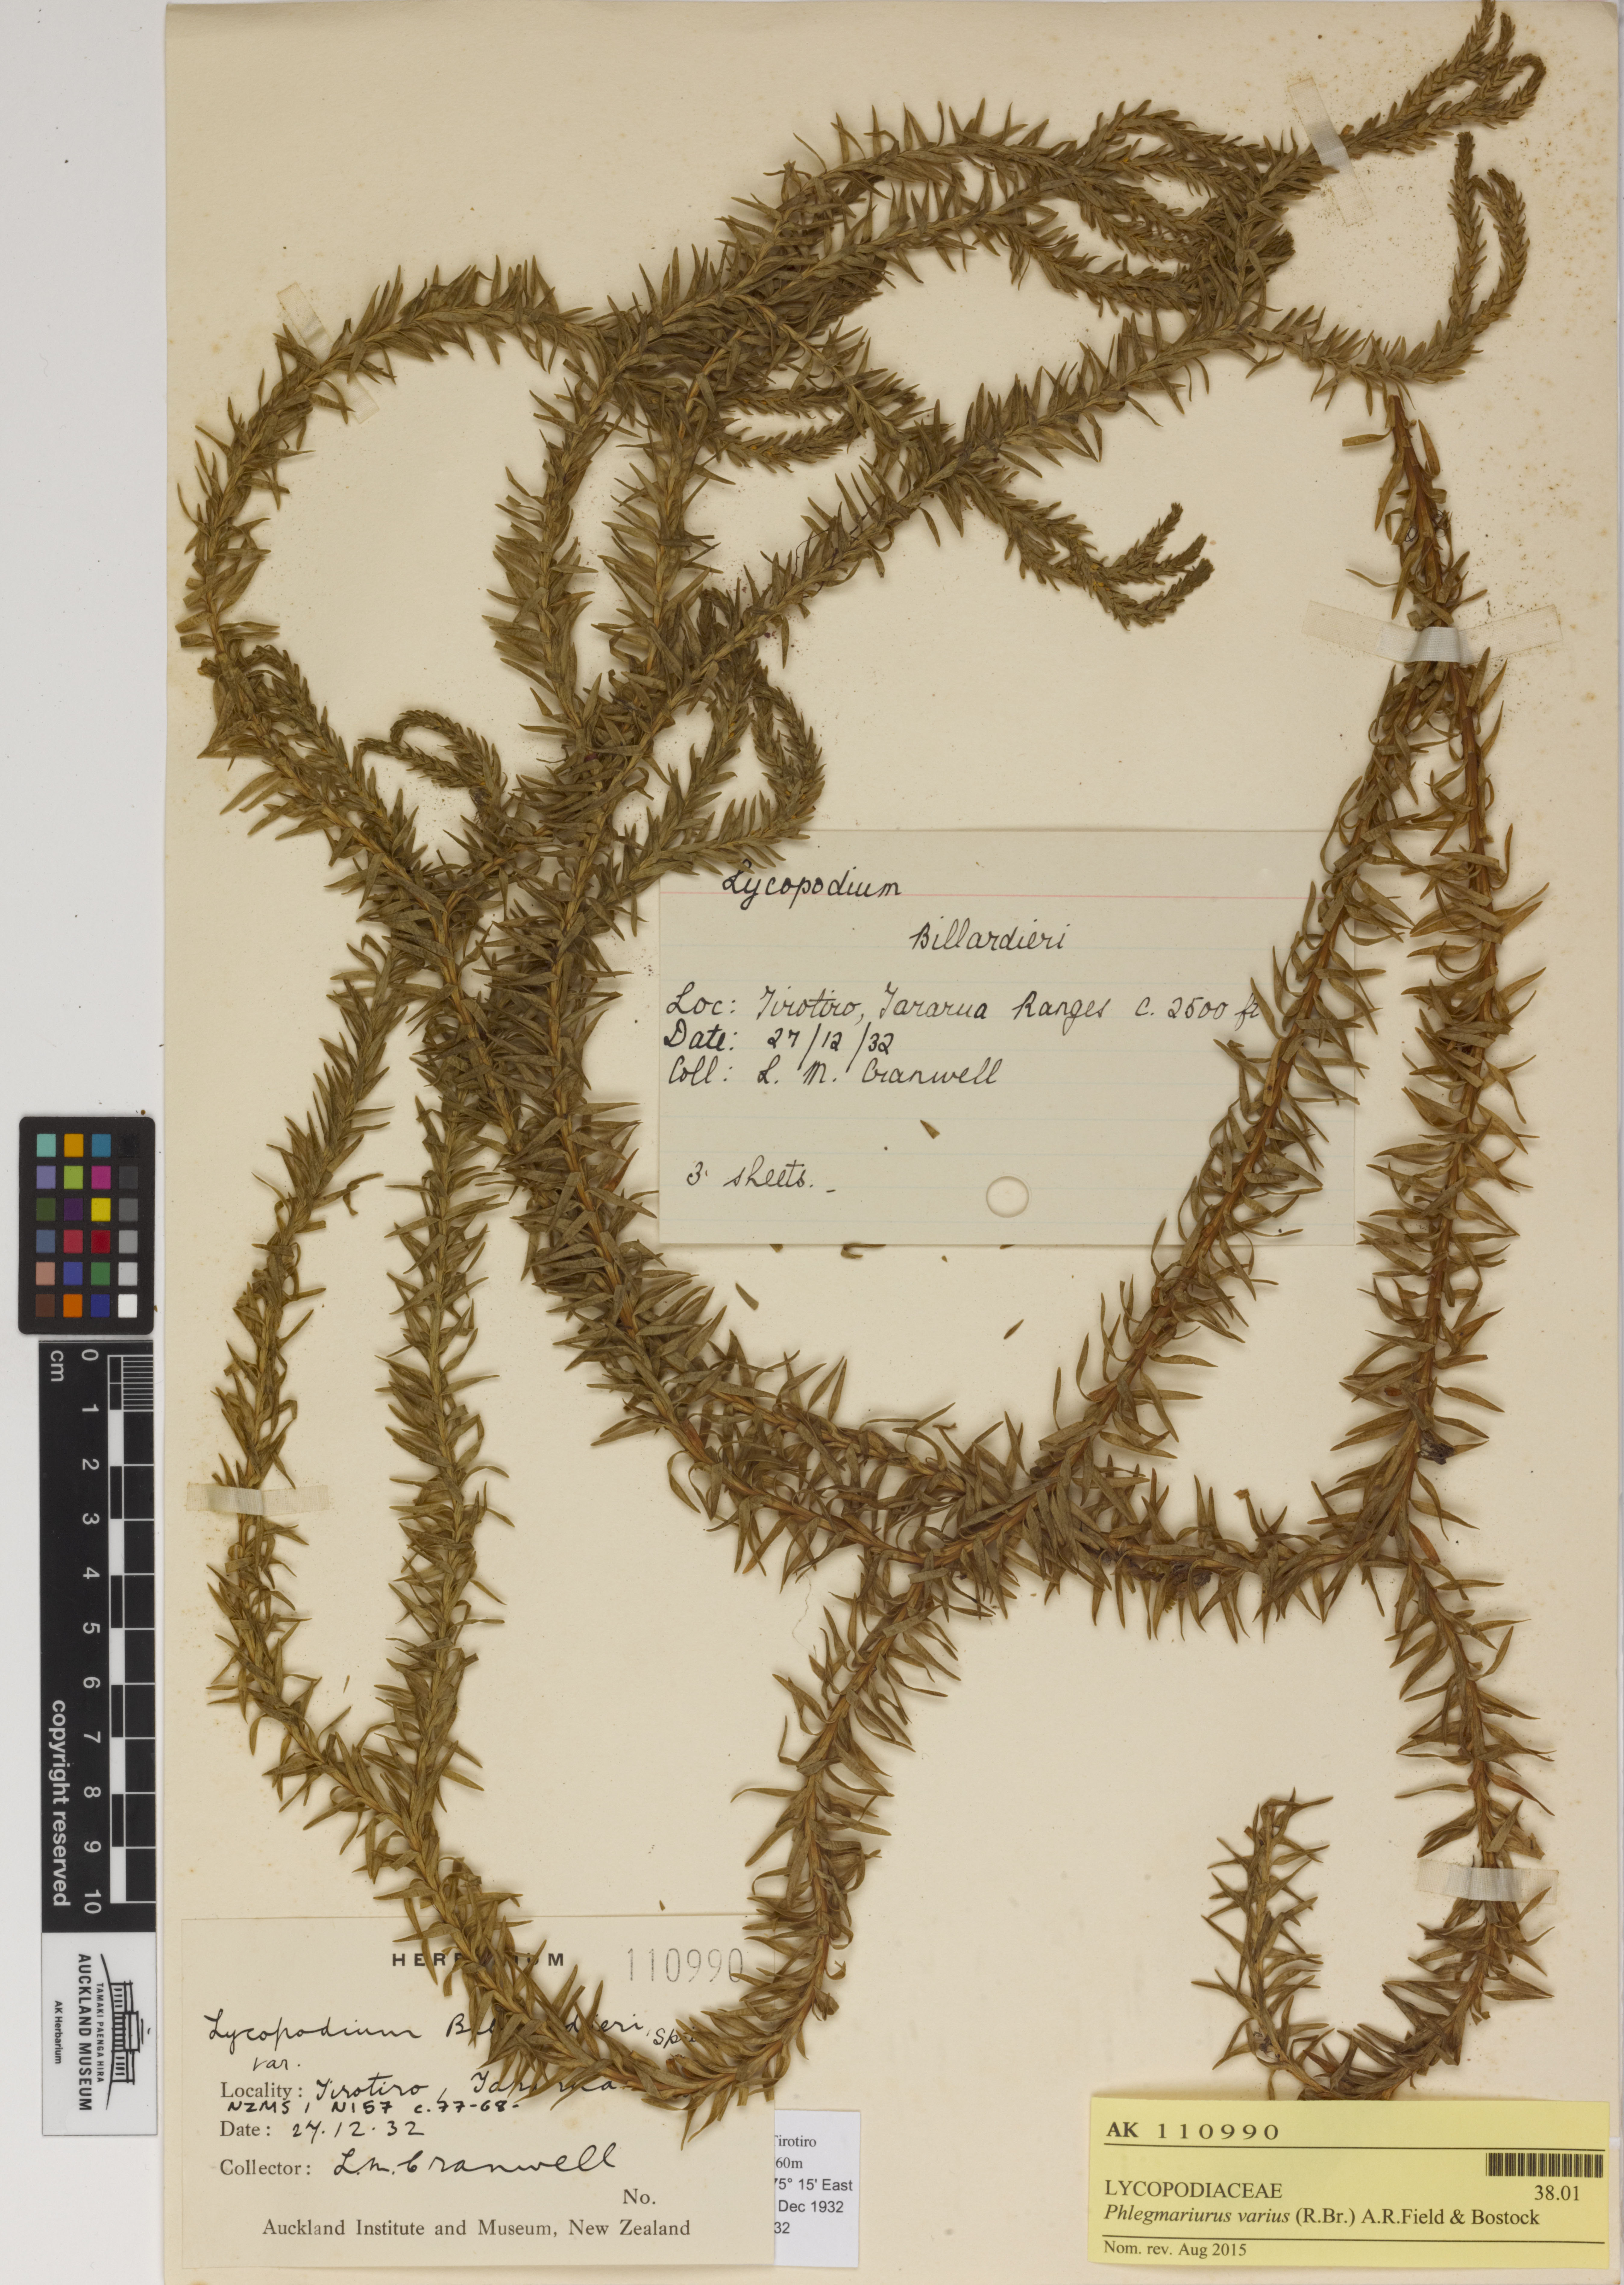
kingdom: Plantae
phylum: Tracheophyta
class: Lycopodiopsida
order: Lycopodiales
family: Lycopodiaceae
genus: Phlegmariurus
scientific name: Phlegmariurus varius
